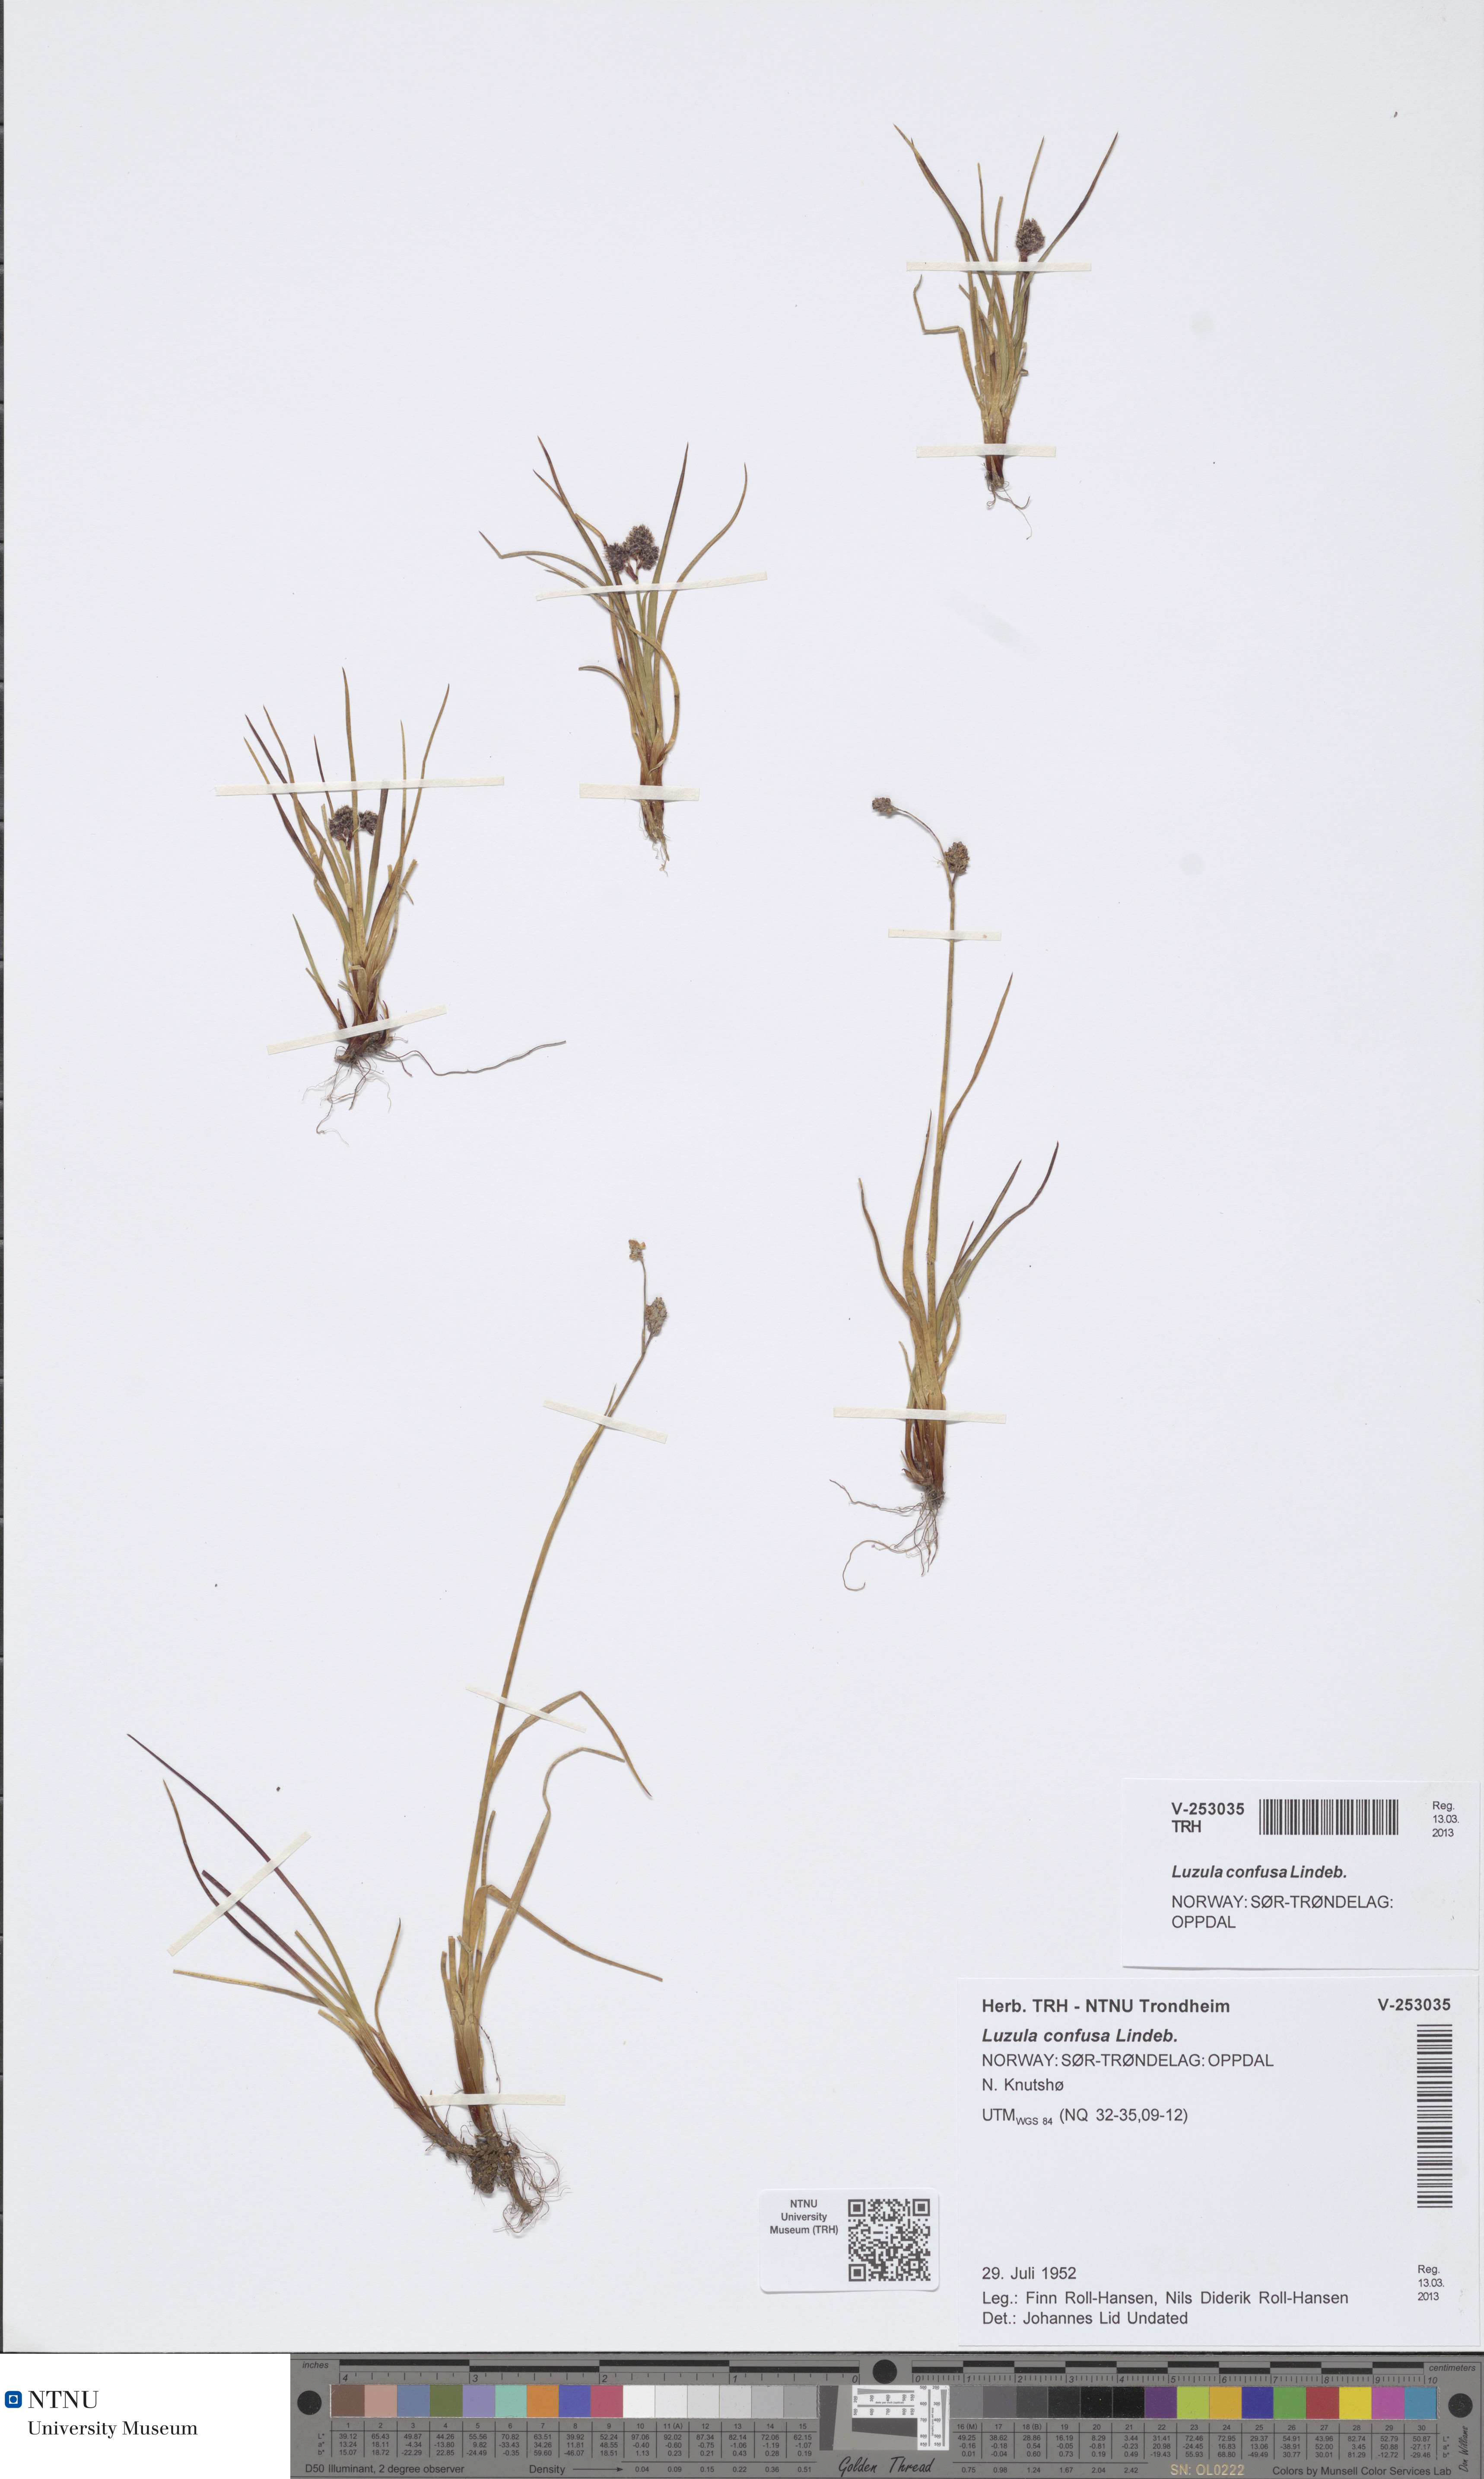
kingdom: Plantae
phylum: Tracheophyta
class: Liliopsida
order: Poales
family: Juncaceae
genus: Luzula
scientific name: Luzula confusa
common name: Northern wood rush
